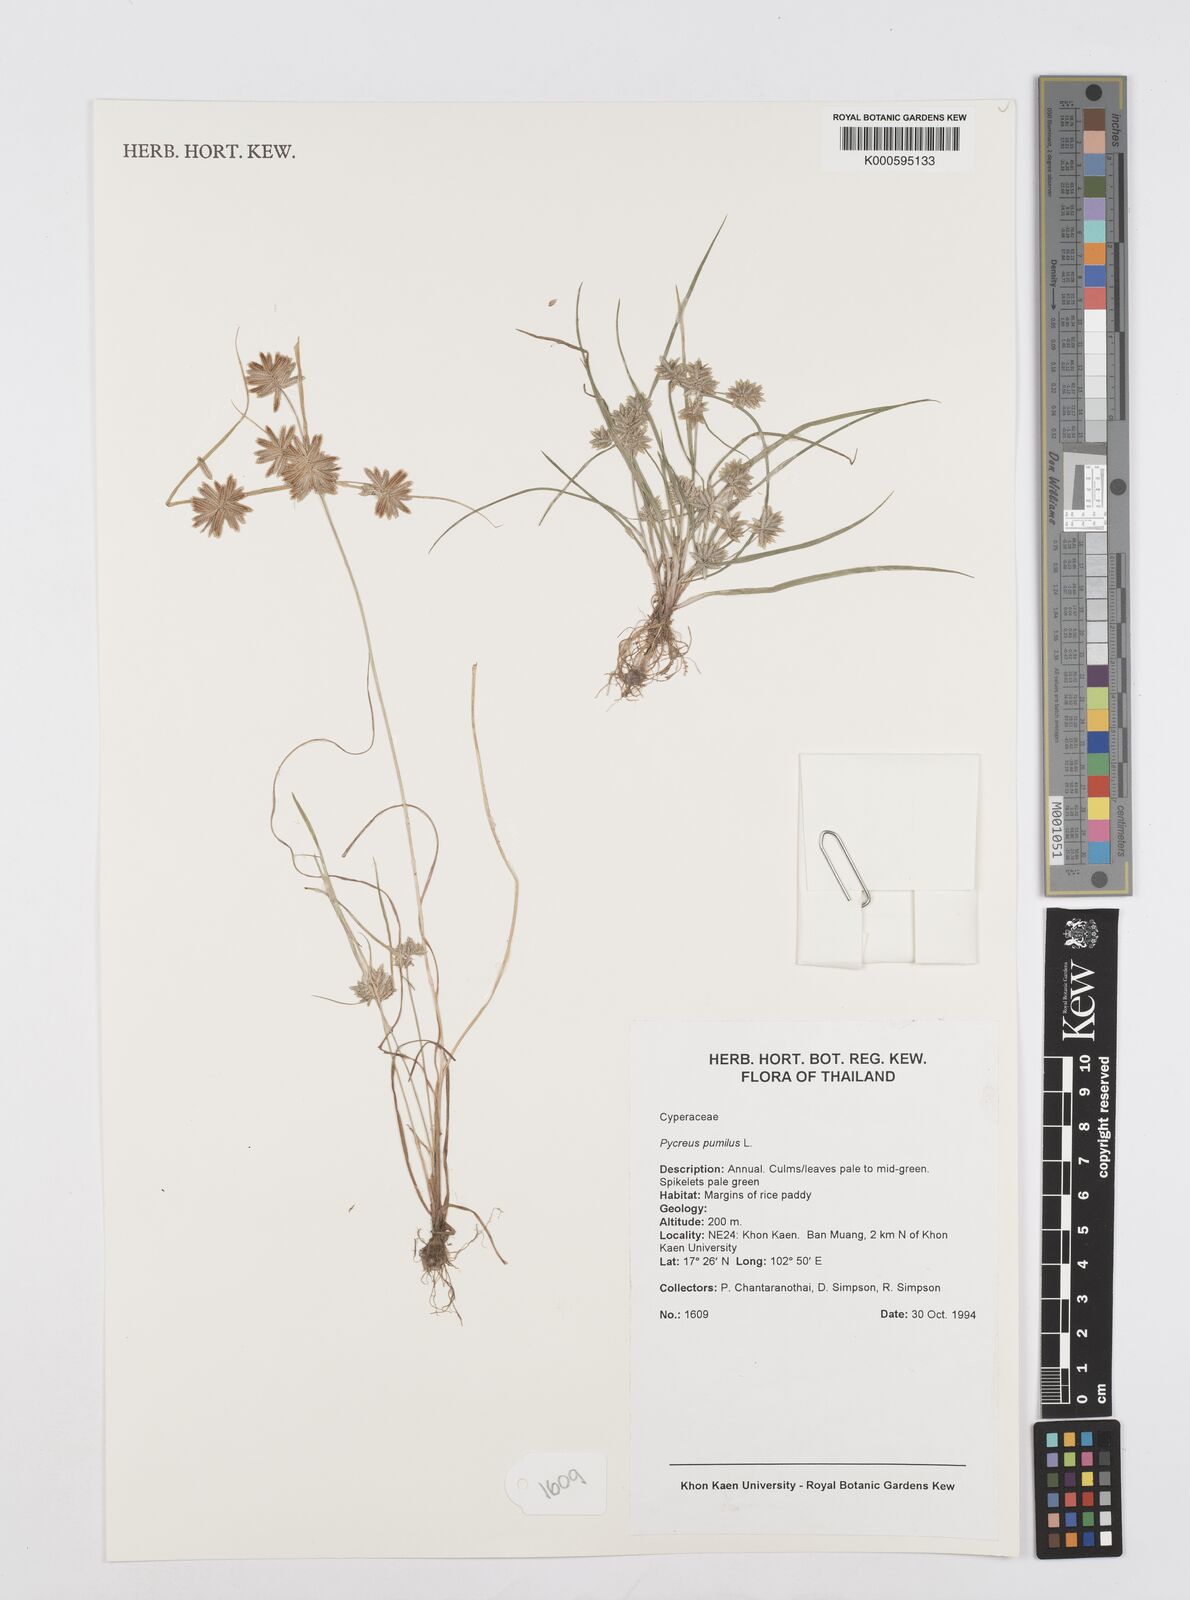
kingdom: Plantae
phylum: Tracheophyta
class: Liliopsida
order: Poales
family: Cyperaceae
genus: Cyperus
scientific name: Cyperus pumilus
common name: Low flatsedge
